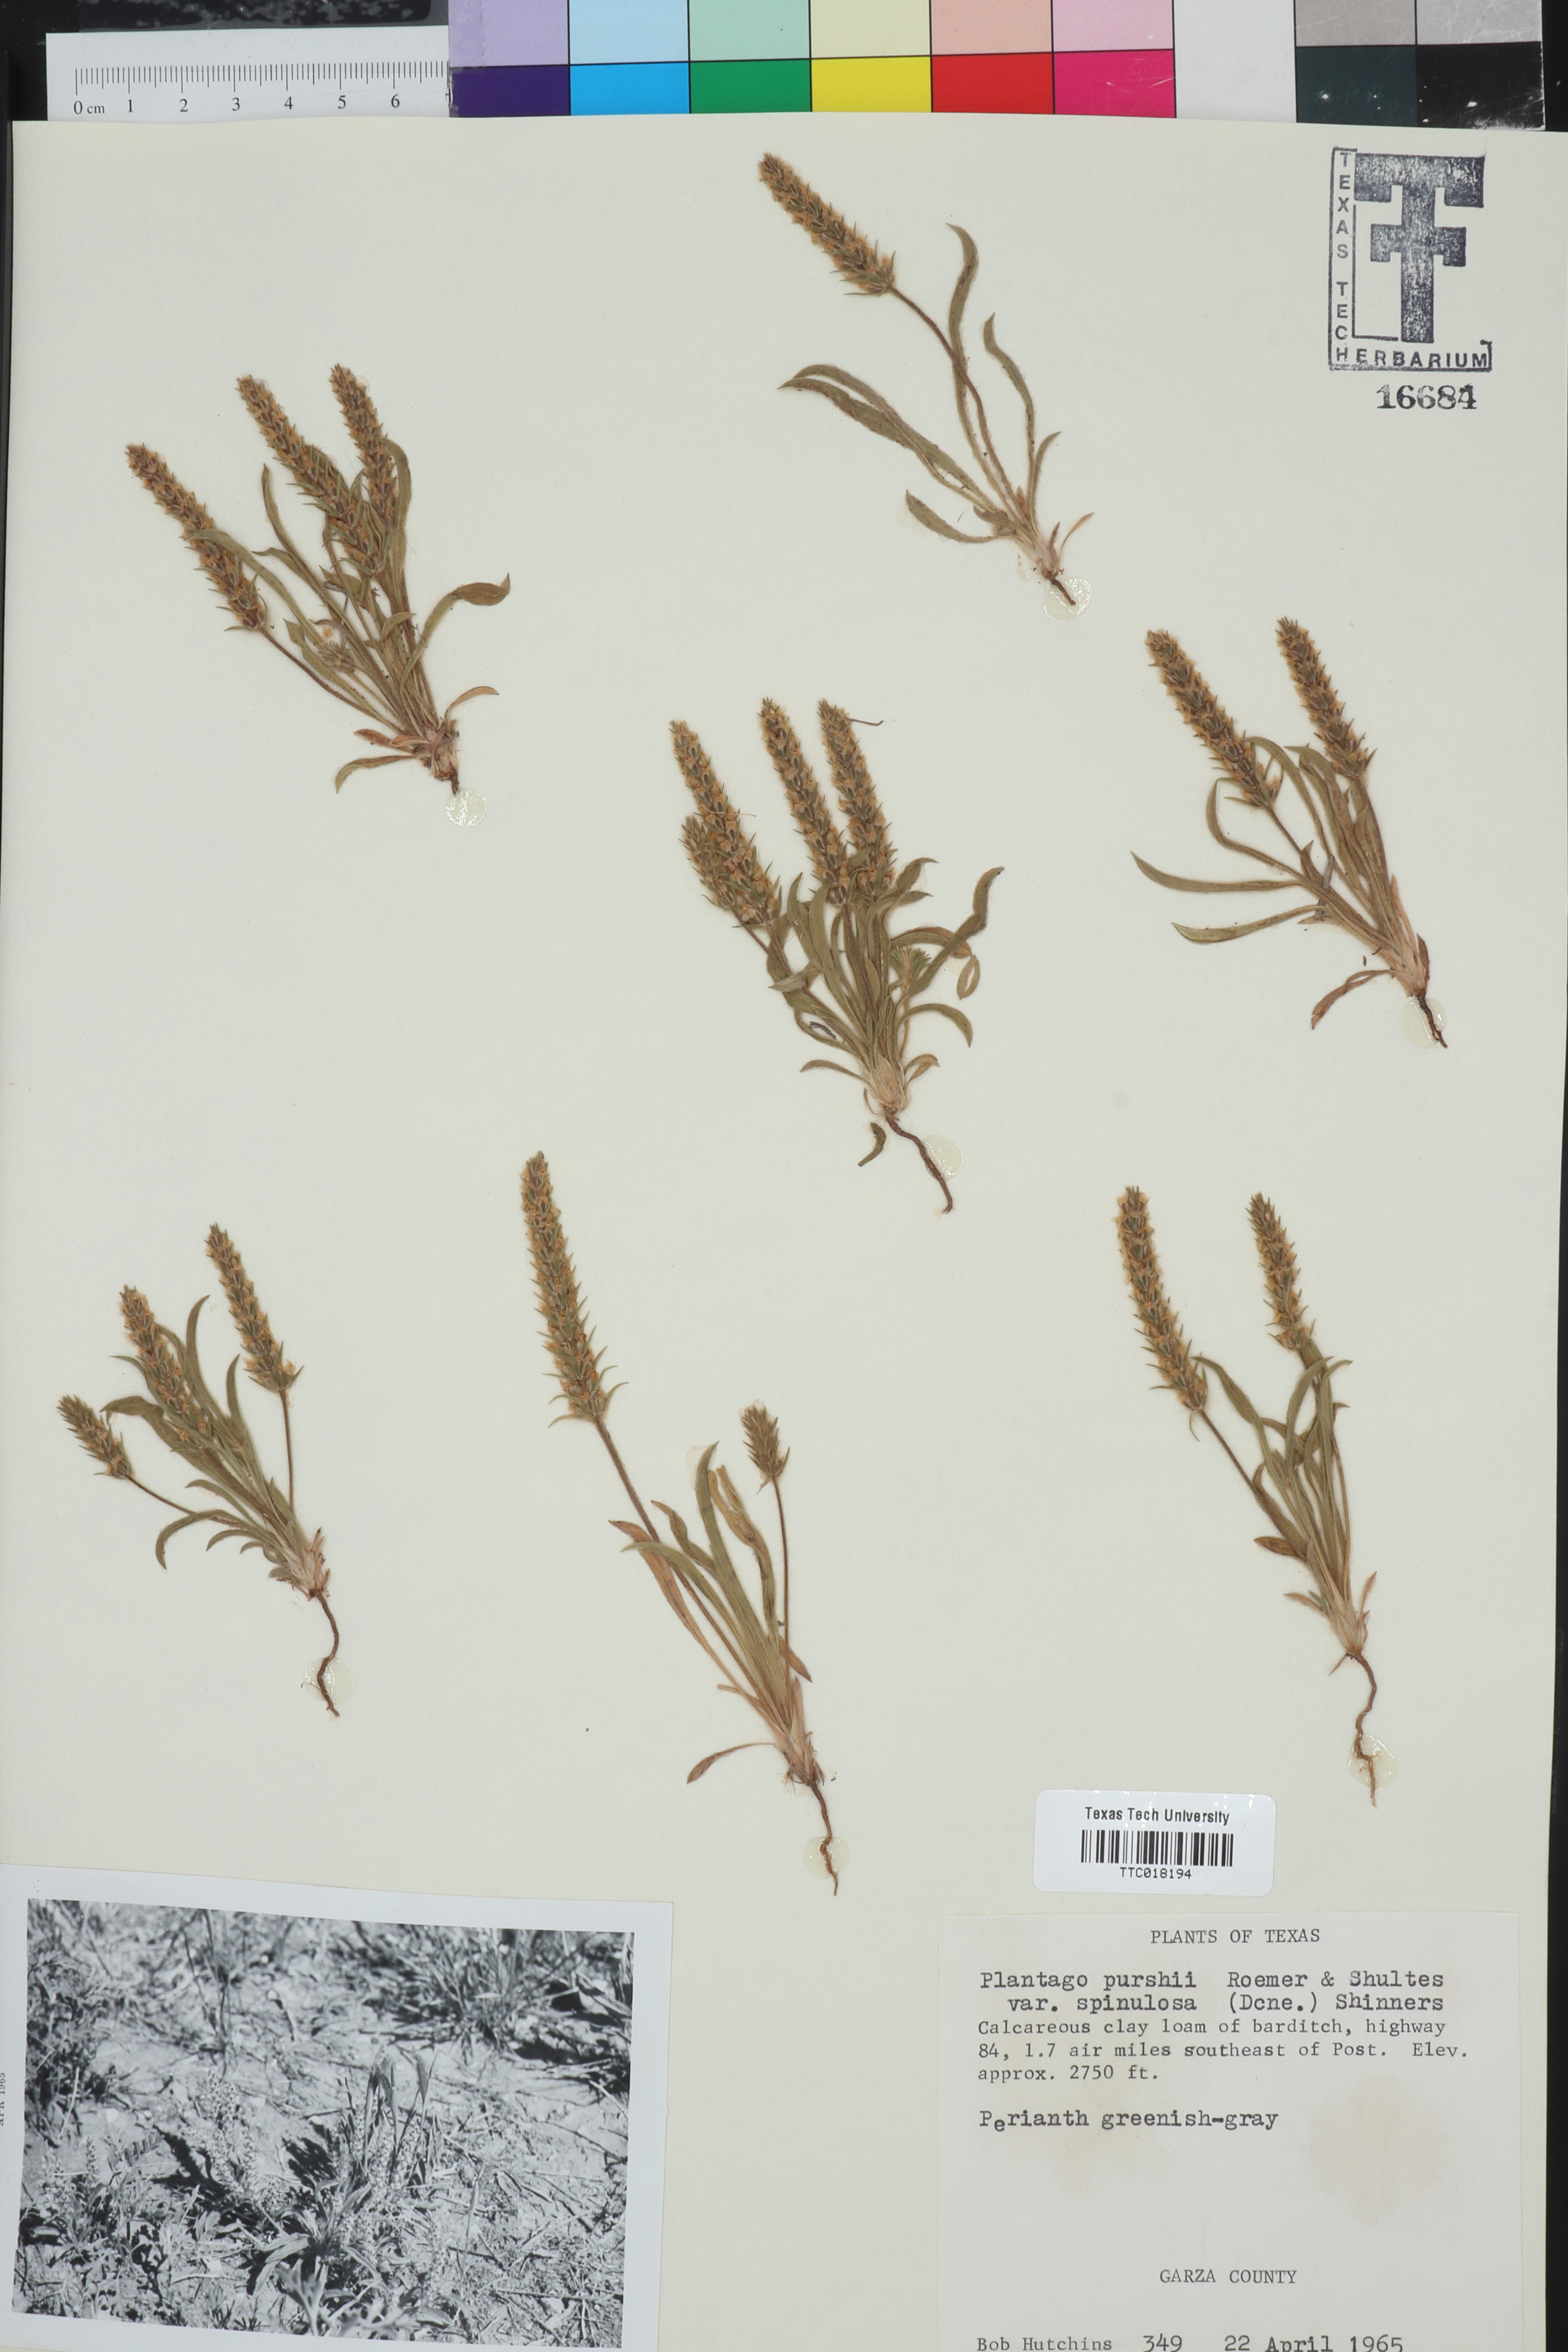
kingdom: Plantae
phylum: Tracheophyta
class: Magnoliopsida
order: Lamiales
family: Plantaginaceae
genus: Plantago
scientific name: Plantago patagonica
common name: Patagonia indian-wheat
